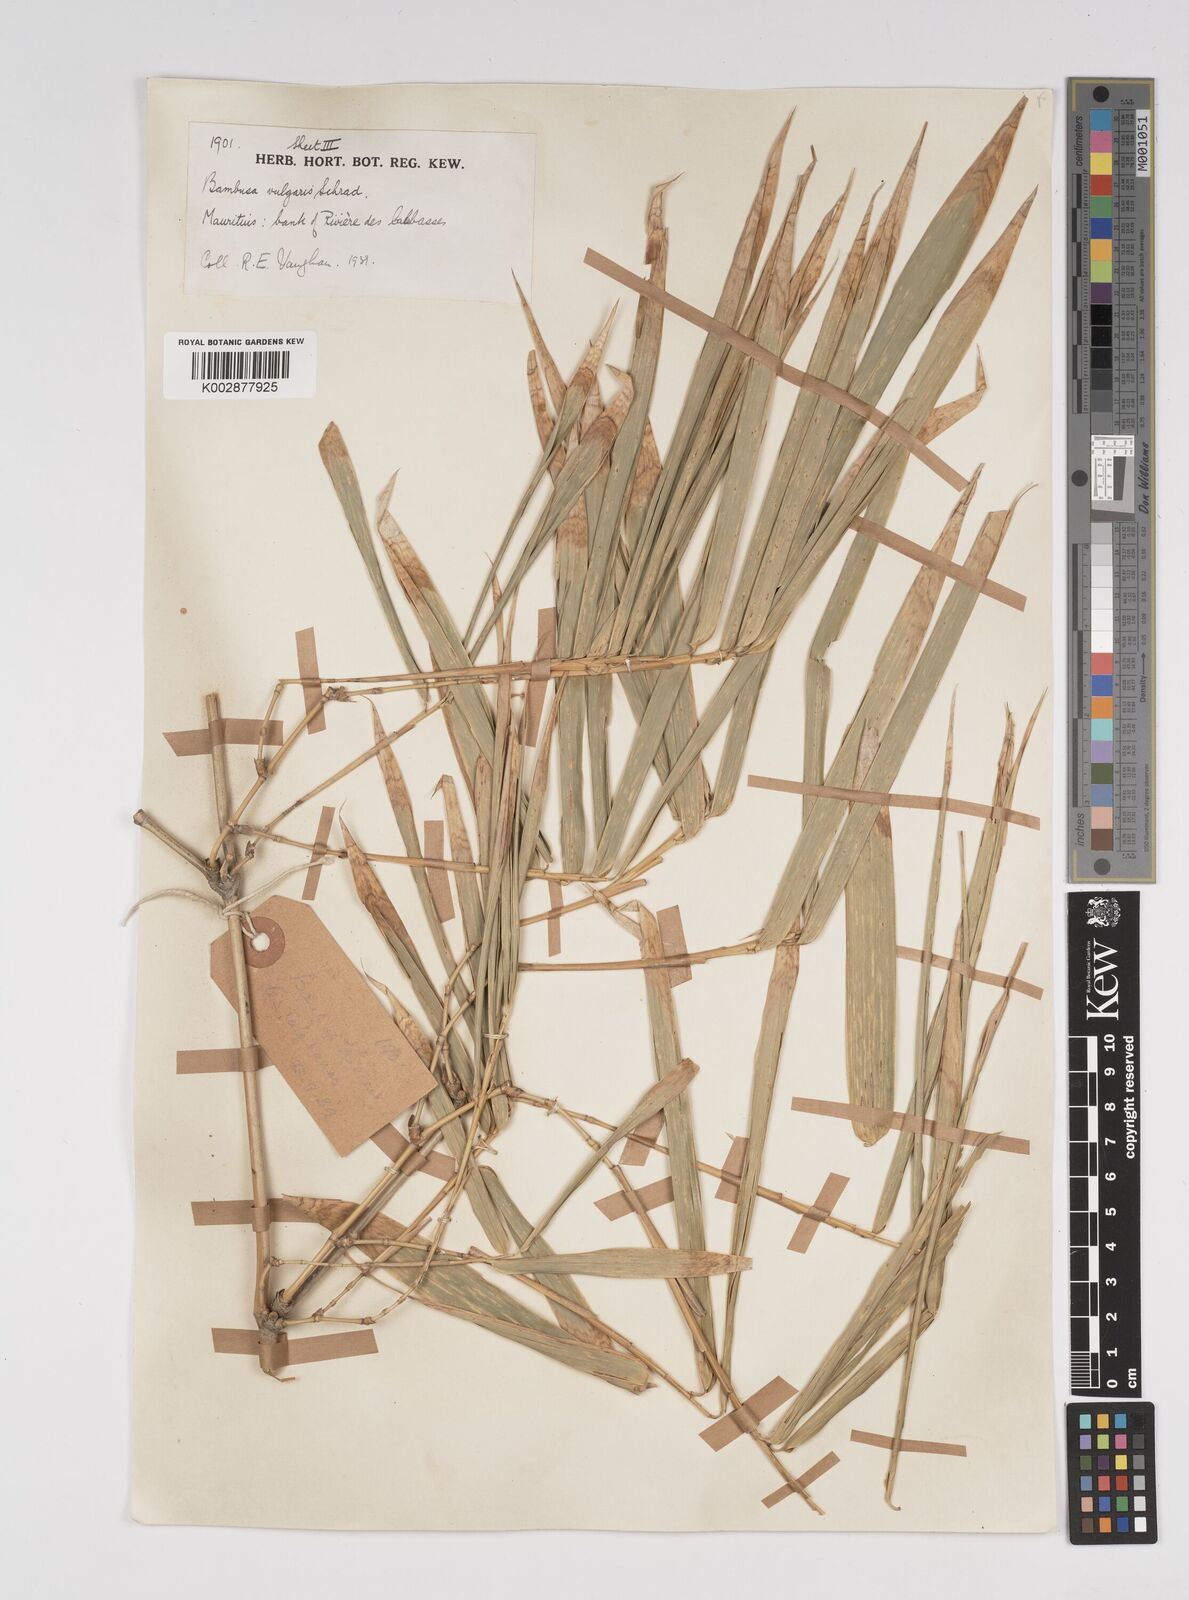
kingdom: Plantae
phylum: Tracheophyta
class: Liliopsida
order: Poales
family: Poaceae
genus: Bambusa
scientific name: Bambusa vulgaris
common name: Common bamboo
